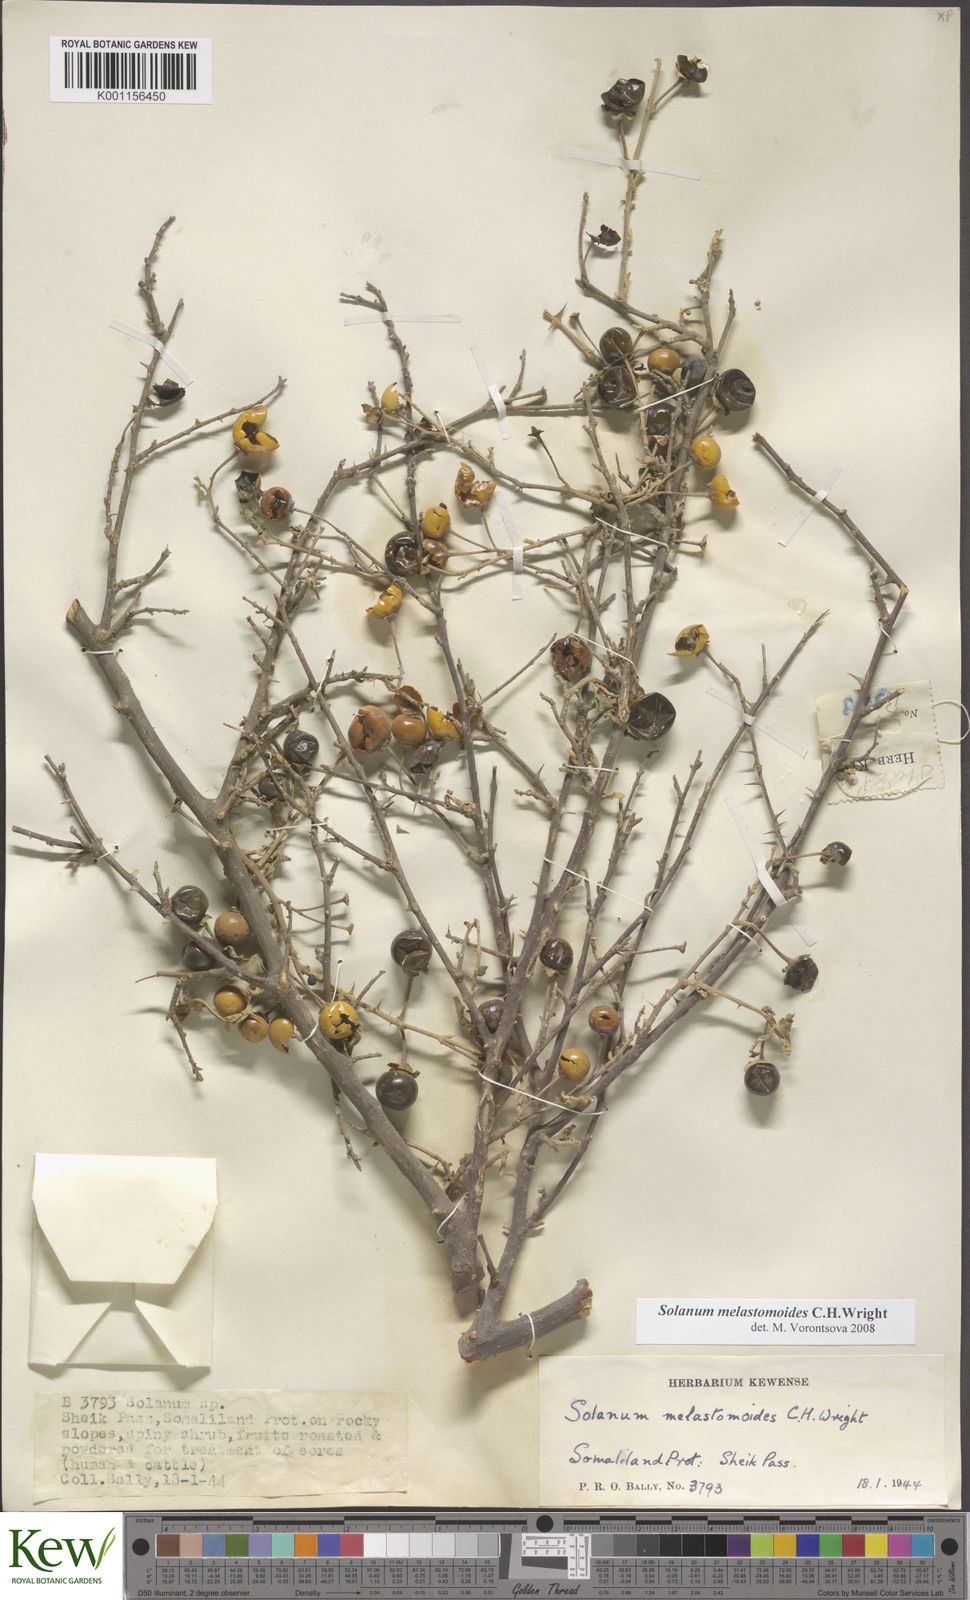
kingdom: Plantae
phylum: Tracheophyta
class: Magnoliopsida
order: Solanales
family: Solanaceae
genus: Solanum
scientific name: Solanum melastomoides
